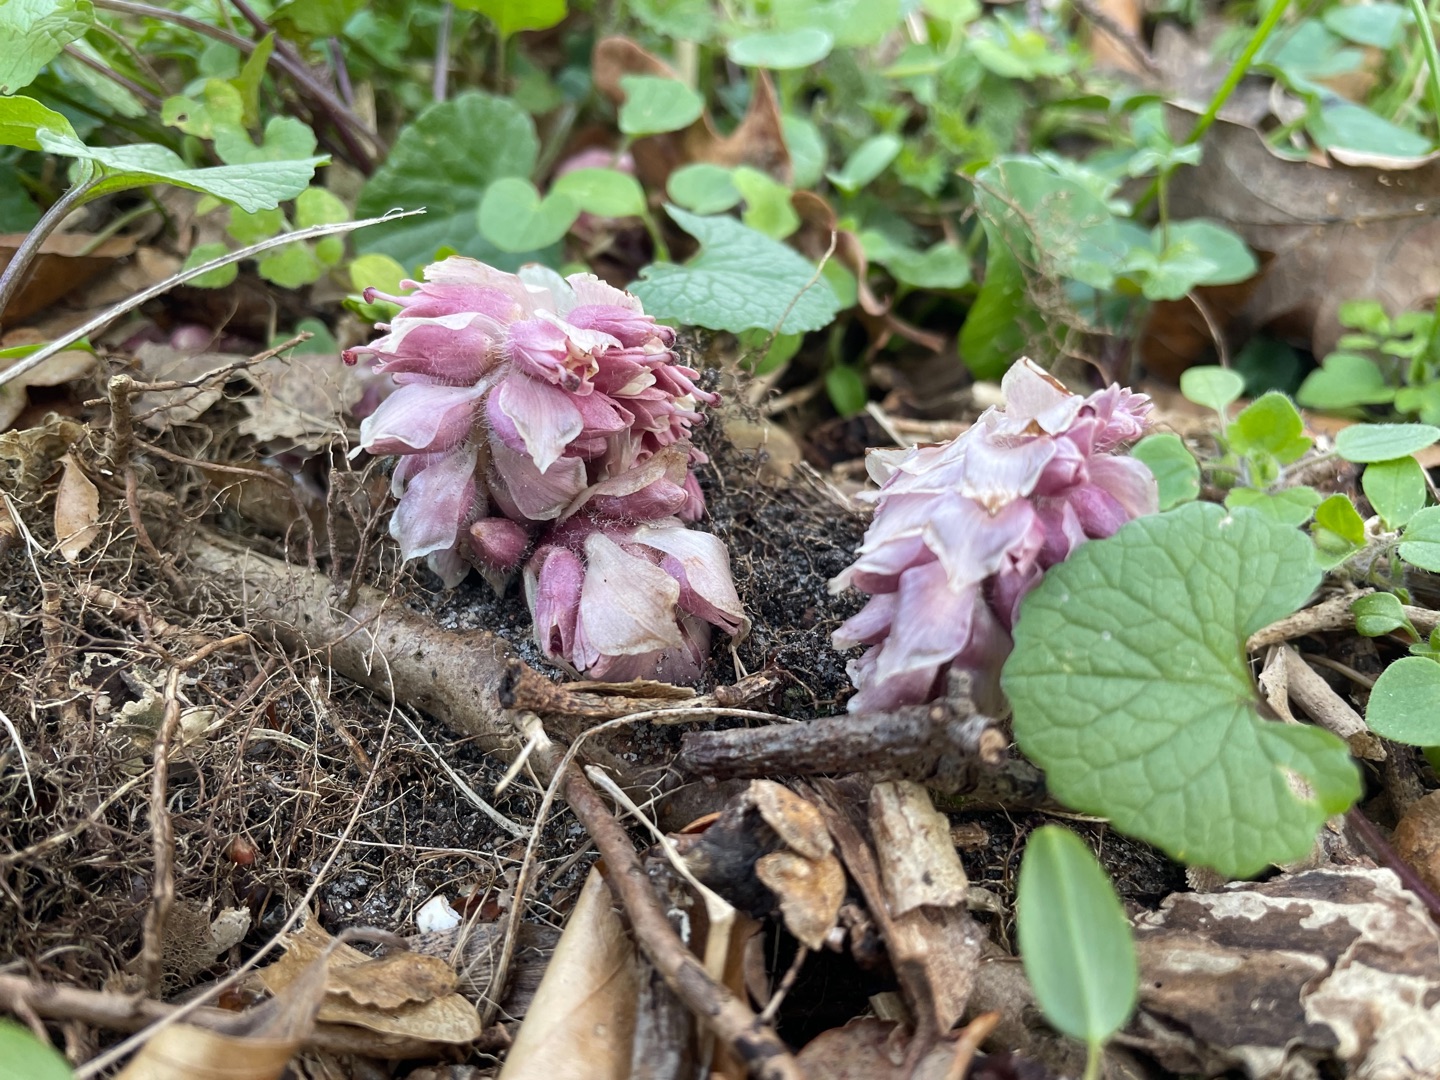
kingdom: Plantae
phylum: Tracheophyta
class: Magnoliopsida
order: Lamiales
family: Orobanchaceae
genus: Lathraea
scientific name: Lathraea squamaria
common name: Skælrod
